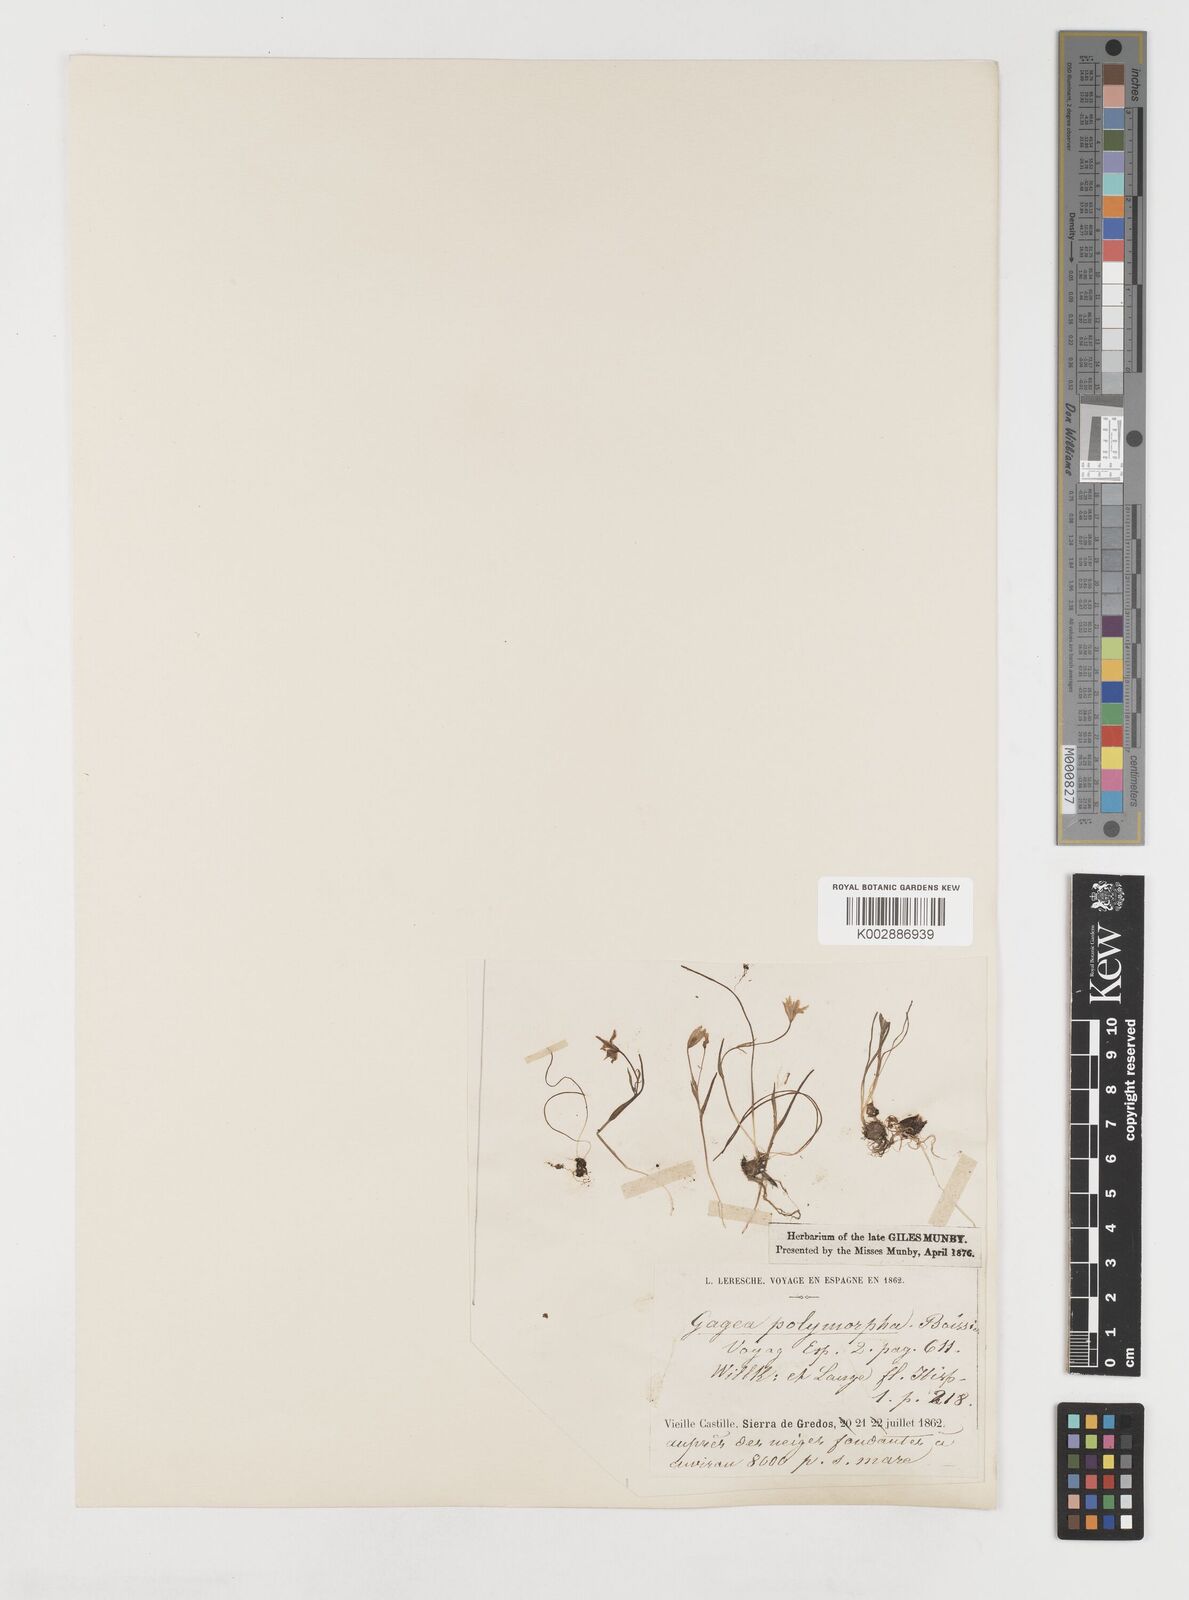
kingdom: Plantae
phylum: Tracheophyta
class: Liliopsida
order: Liliales
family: Liliaceae
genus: Gagea
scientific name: Gagea foliosa
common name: Leafy gagea
